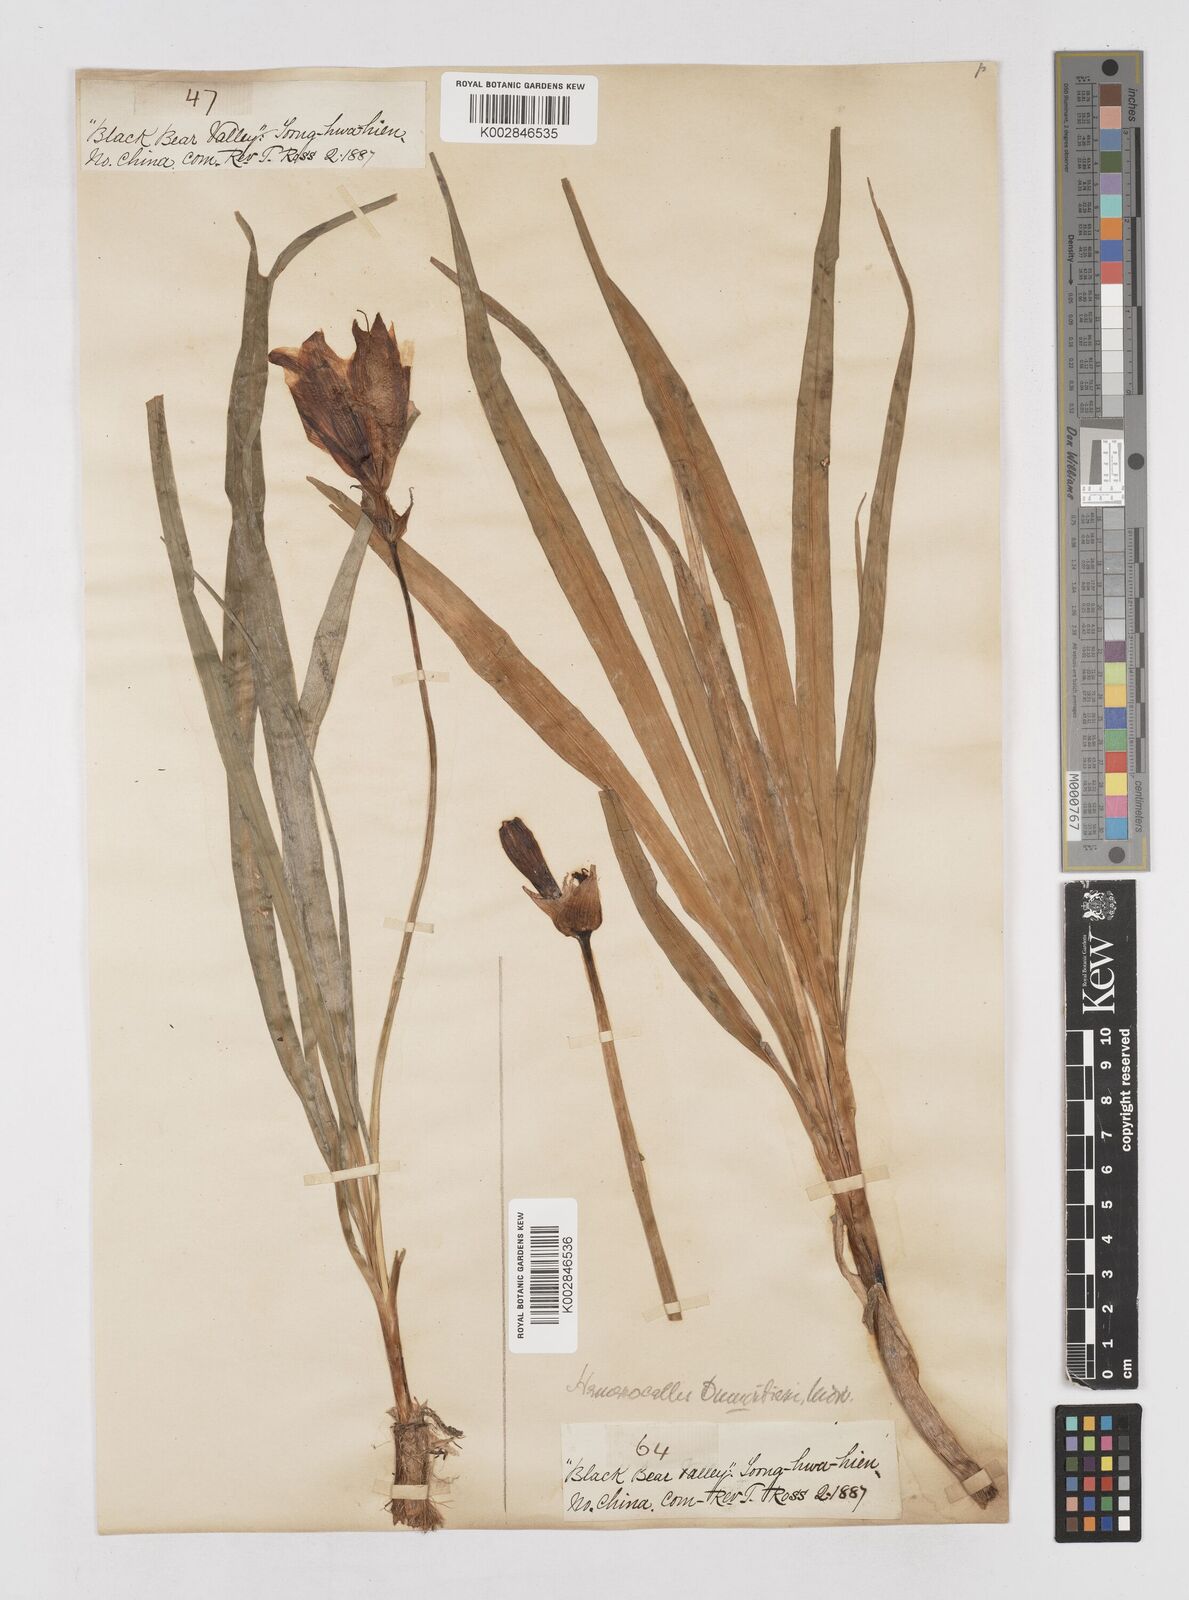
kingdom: Plantae
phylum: Tracheophyta
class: Liliopsida
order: Asparagales
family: Asphodelaceae
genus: Hemerocallis
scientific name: Hemerocallis middendorffii
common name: Amur day-lily
